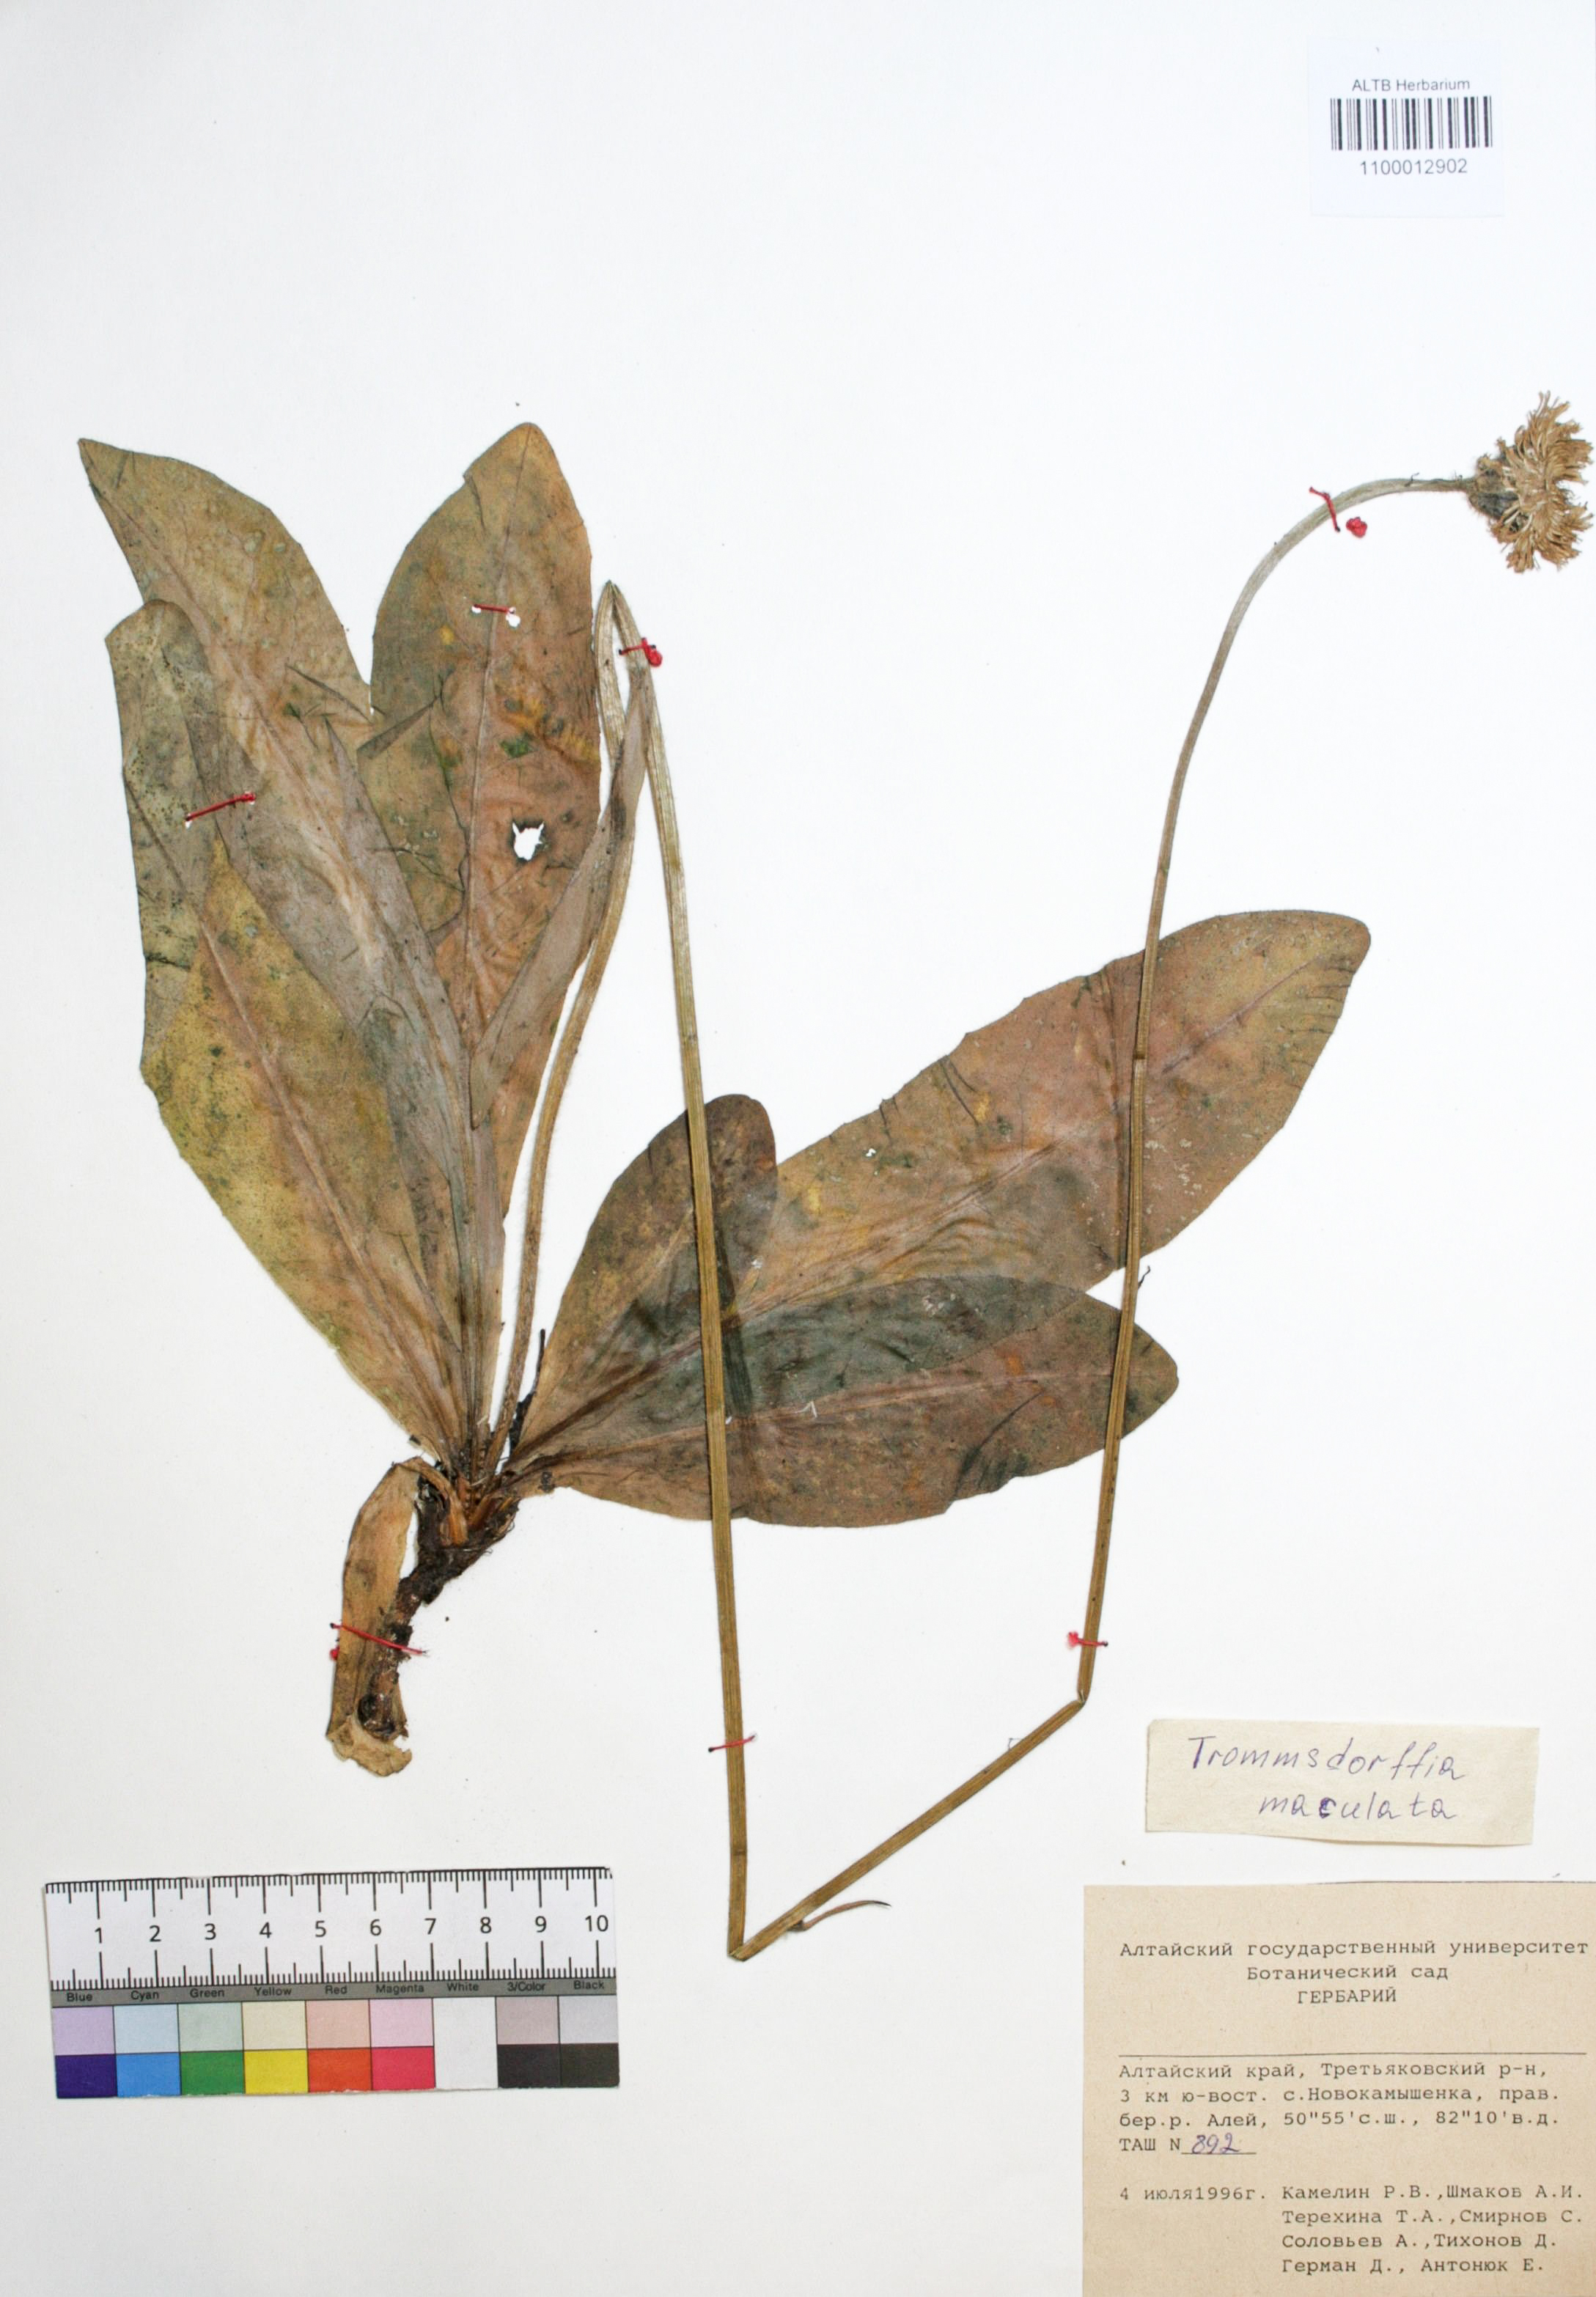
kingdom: Plantae
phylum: Tracheophyta
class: Magnoliopsida
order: Asterales
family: Asteraceae
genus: Trommsdorffia
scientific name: Trommsdorffia maculata
